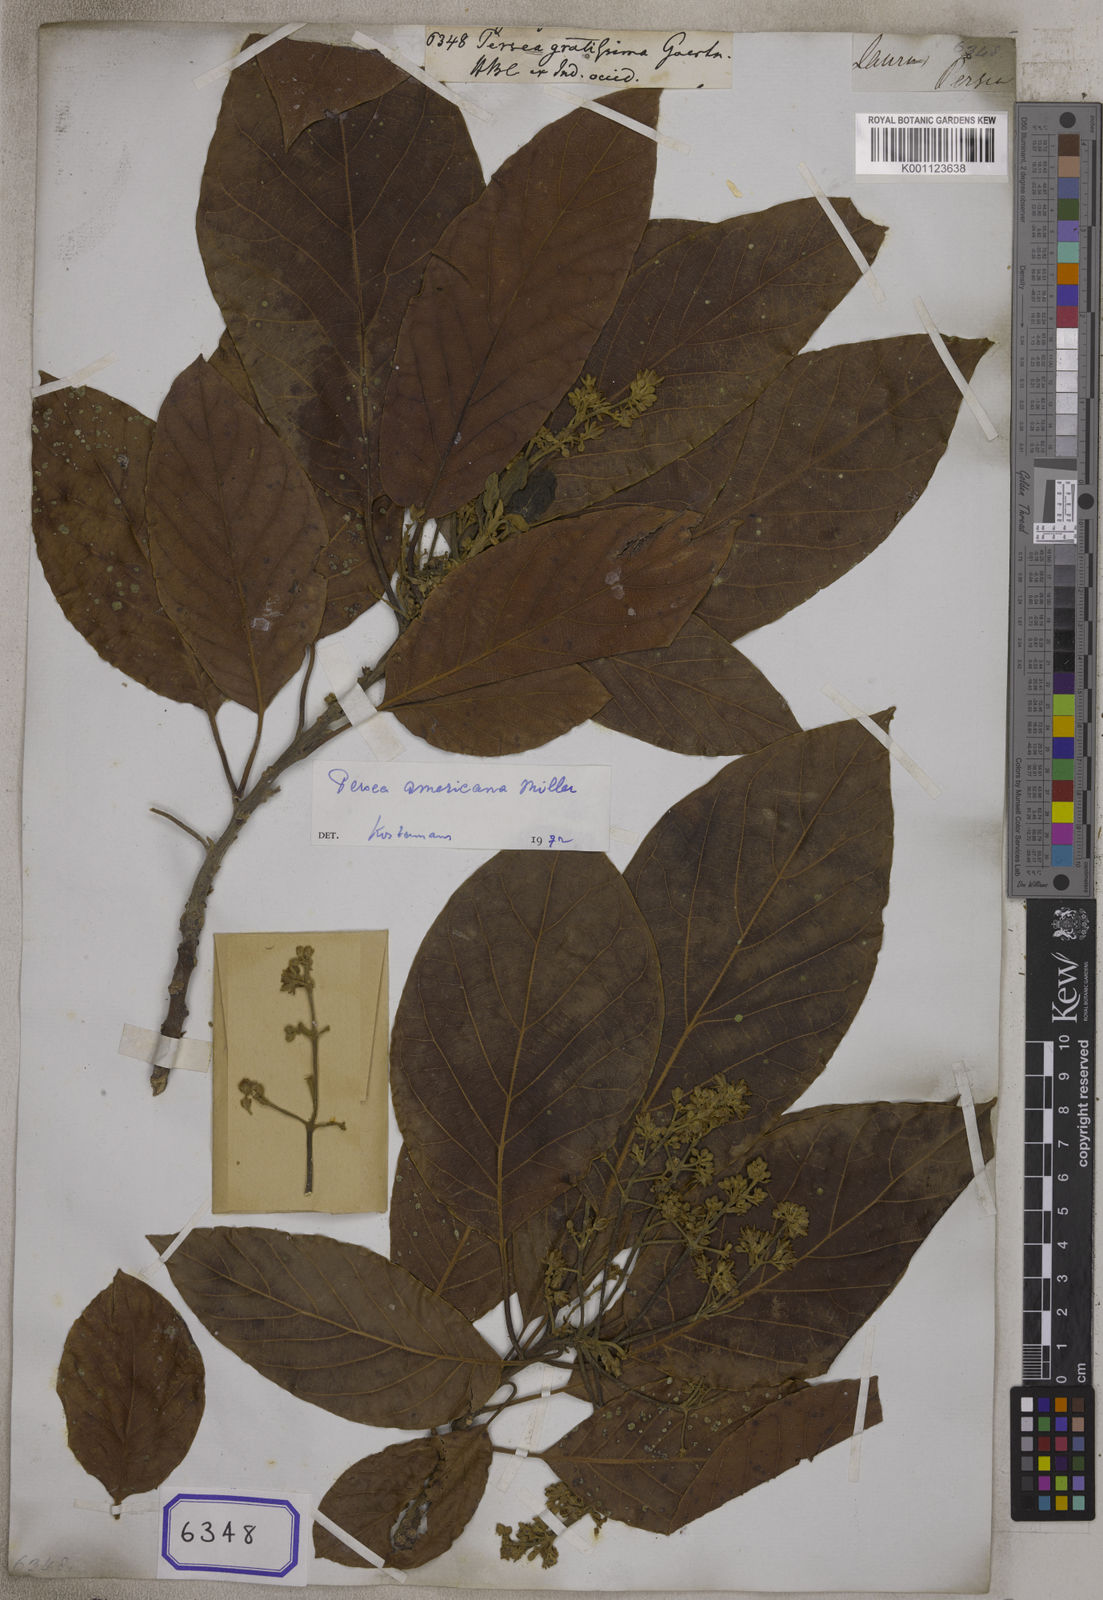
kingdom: Plantae
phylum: Tracheophyta
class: Magnoliopsida
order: Laurales
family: Lauraceae
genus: Persea
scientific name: Persea americana
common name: Avocado
